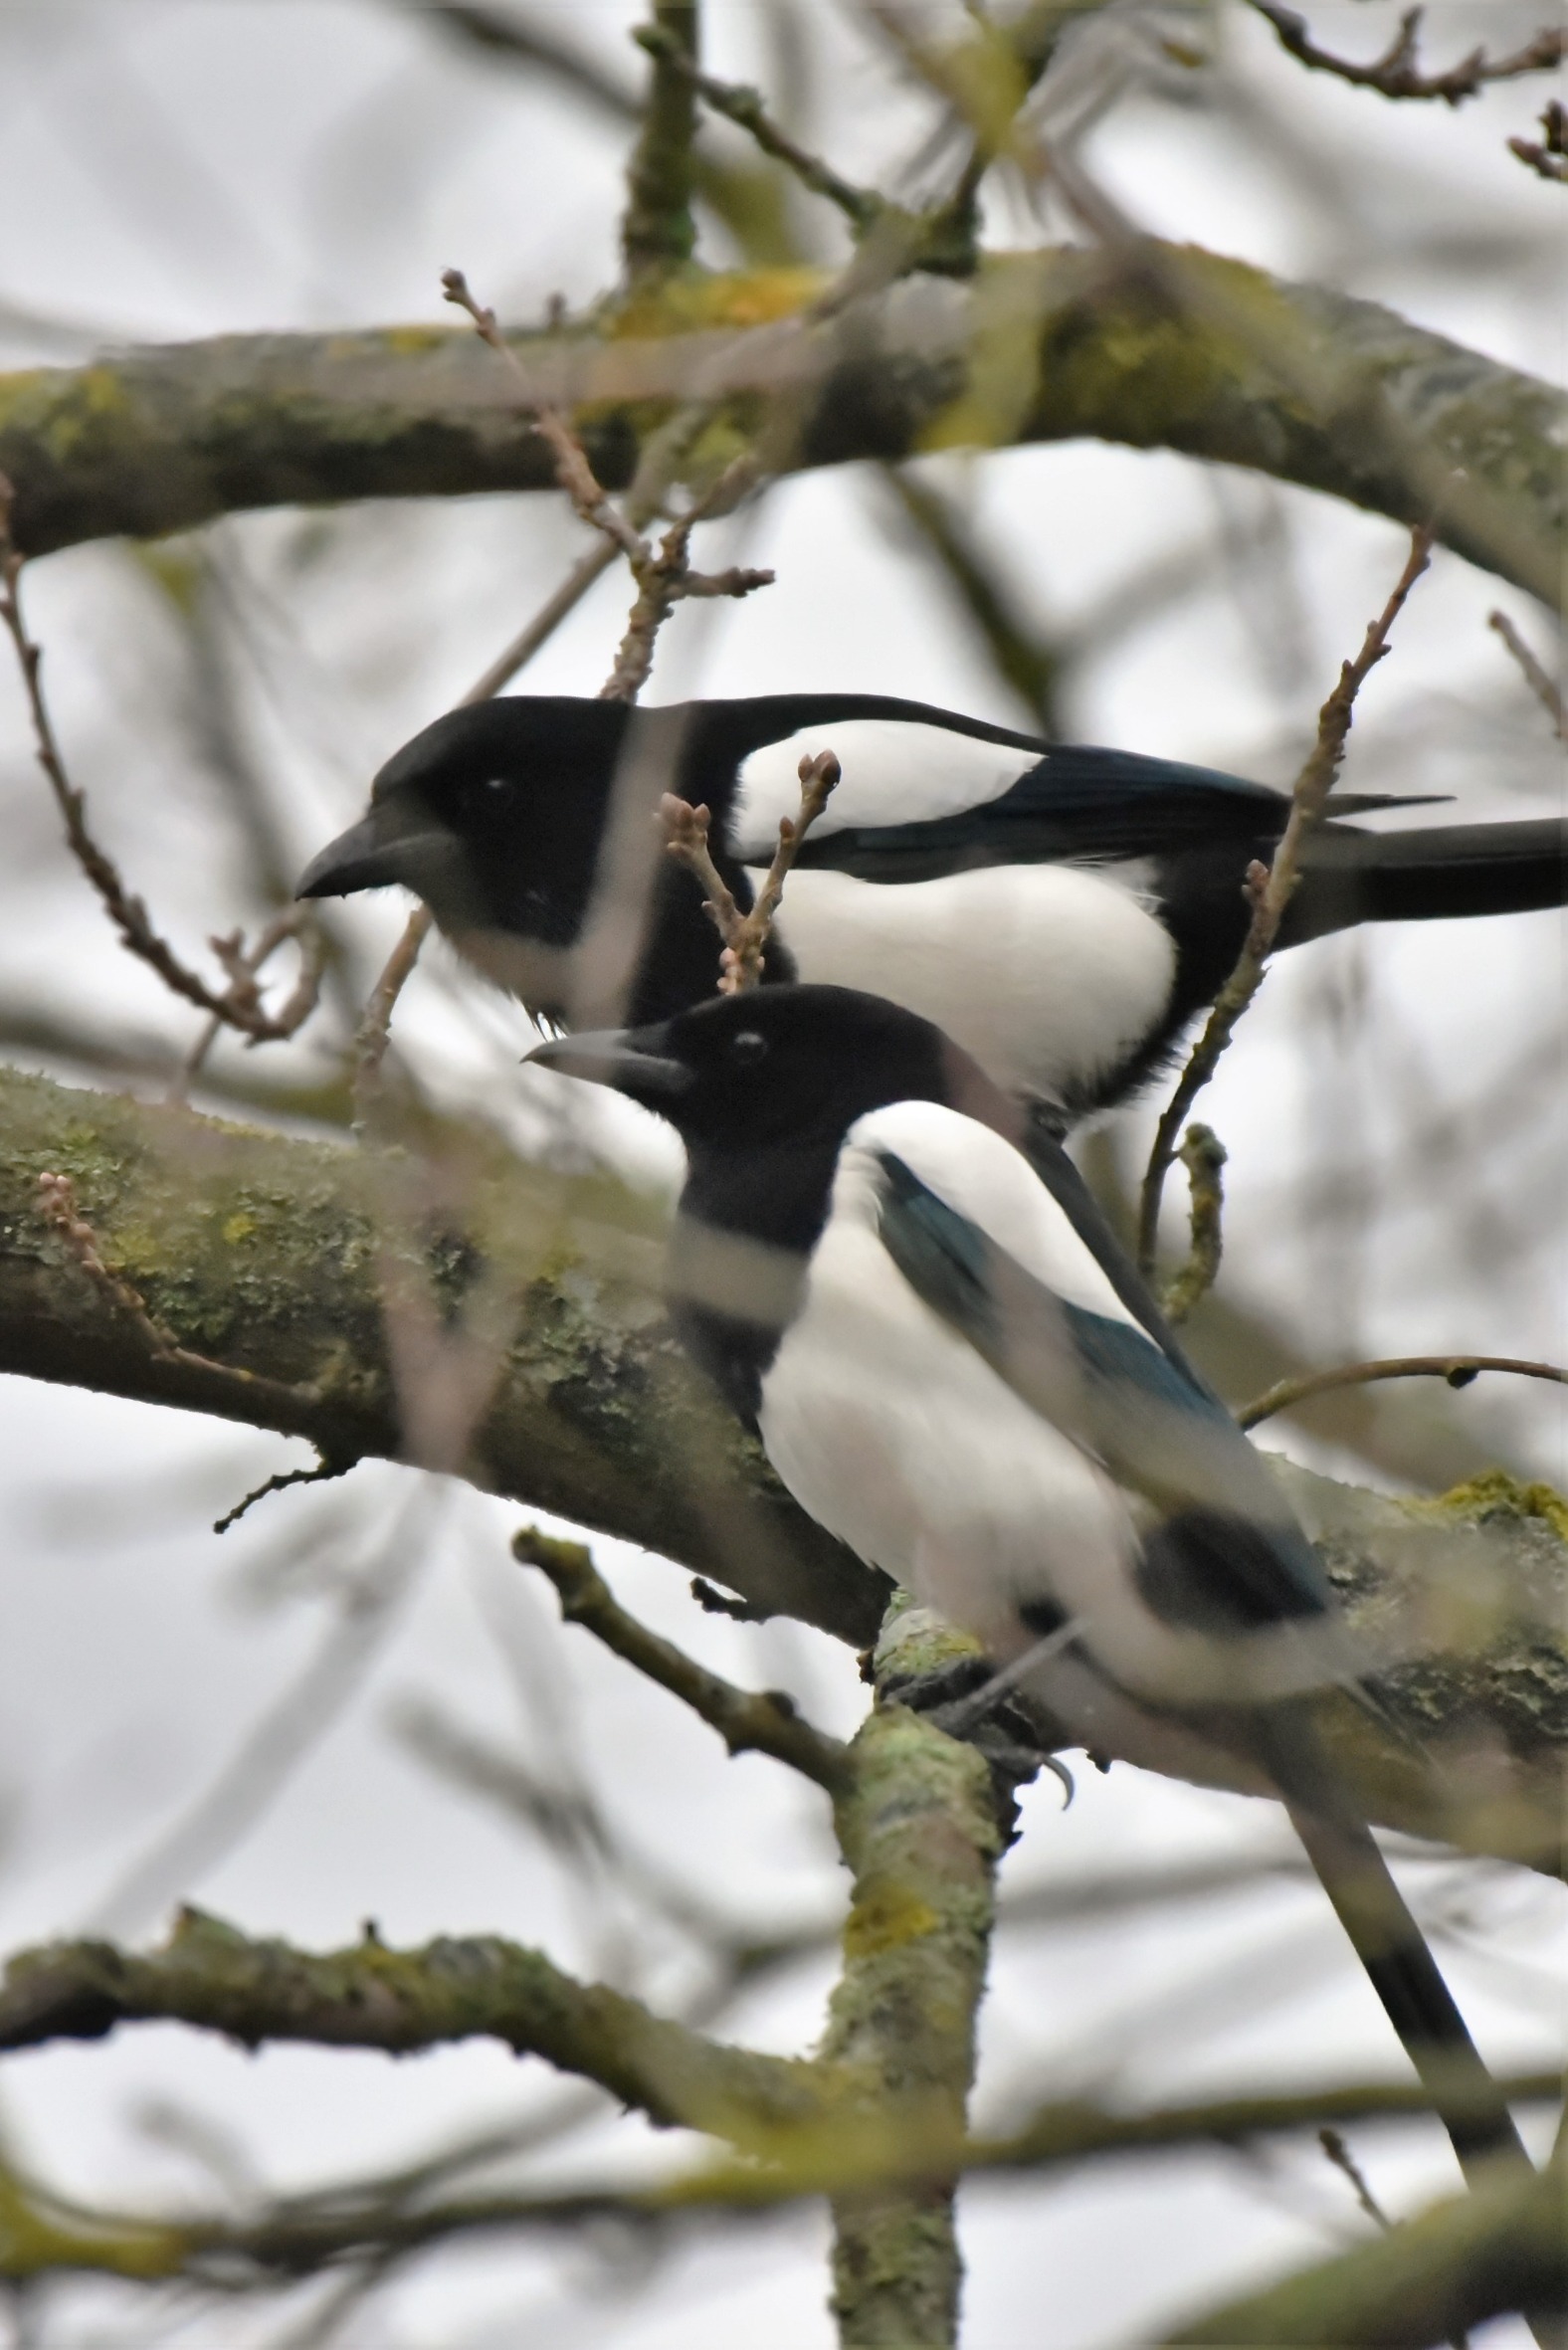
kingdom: Animalia
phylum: Chordata
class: Aves
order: Passeriformes
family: Corvidae
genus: Pica
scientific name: Pica pica
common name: Husskade
